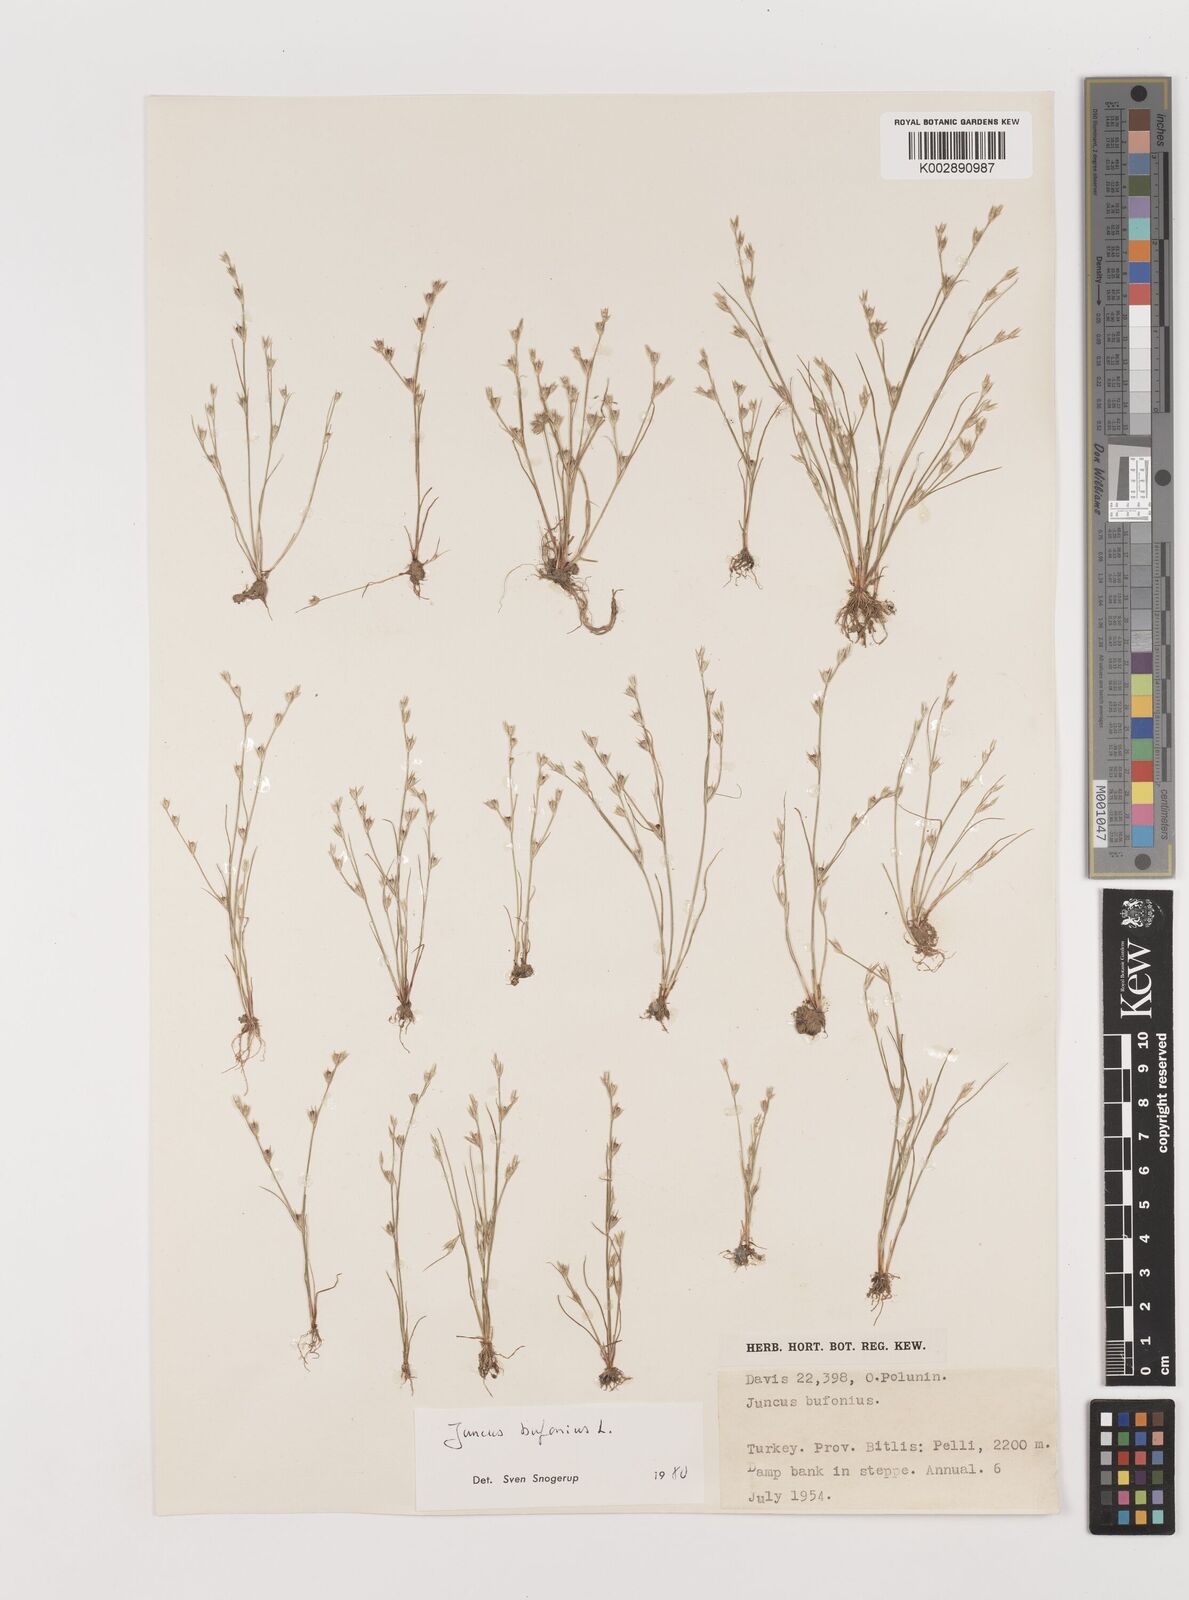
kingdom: Plantae
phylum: Tracheophyta
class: Liliopsida
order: Poales
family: Juncaceae
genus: Juncus
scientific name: Juncus bufonius
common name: Toad rush
